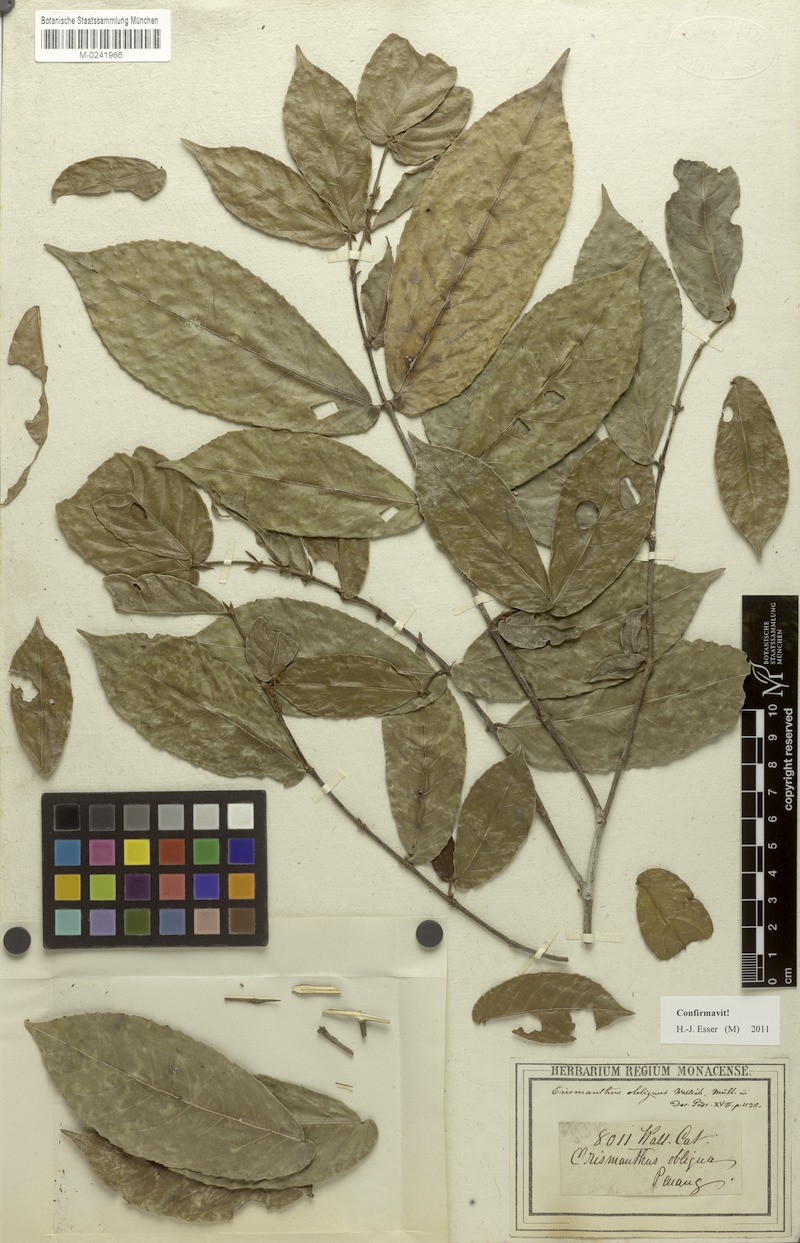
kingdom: Plantae
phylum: Tracheophyta
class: Magnoliopsida
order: Malpighiales
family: Euphorbiaceae
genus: Erismanthus
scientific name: Erismanthus obliquus
